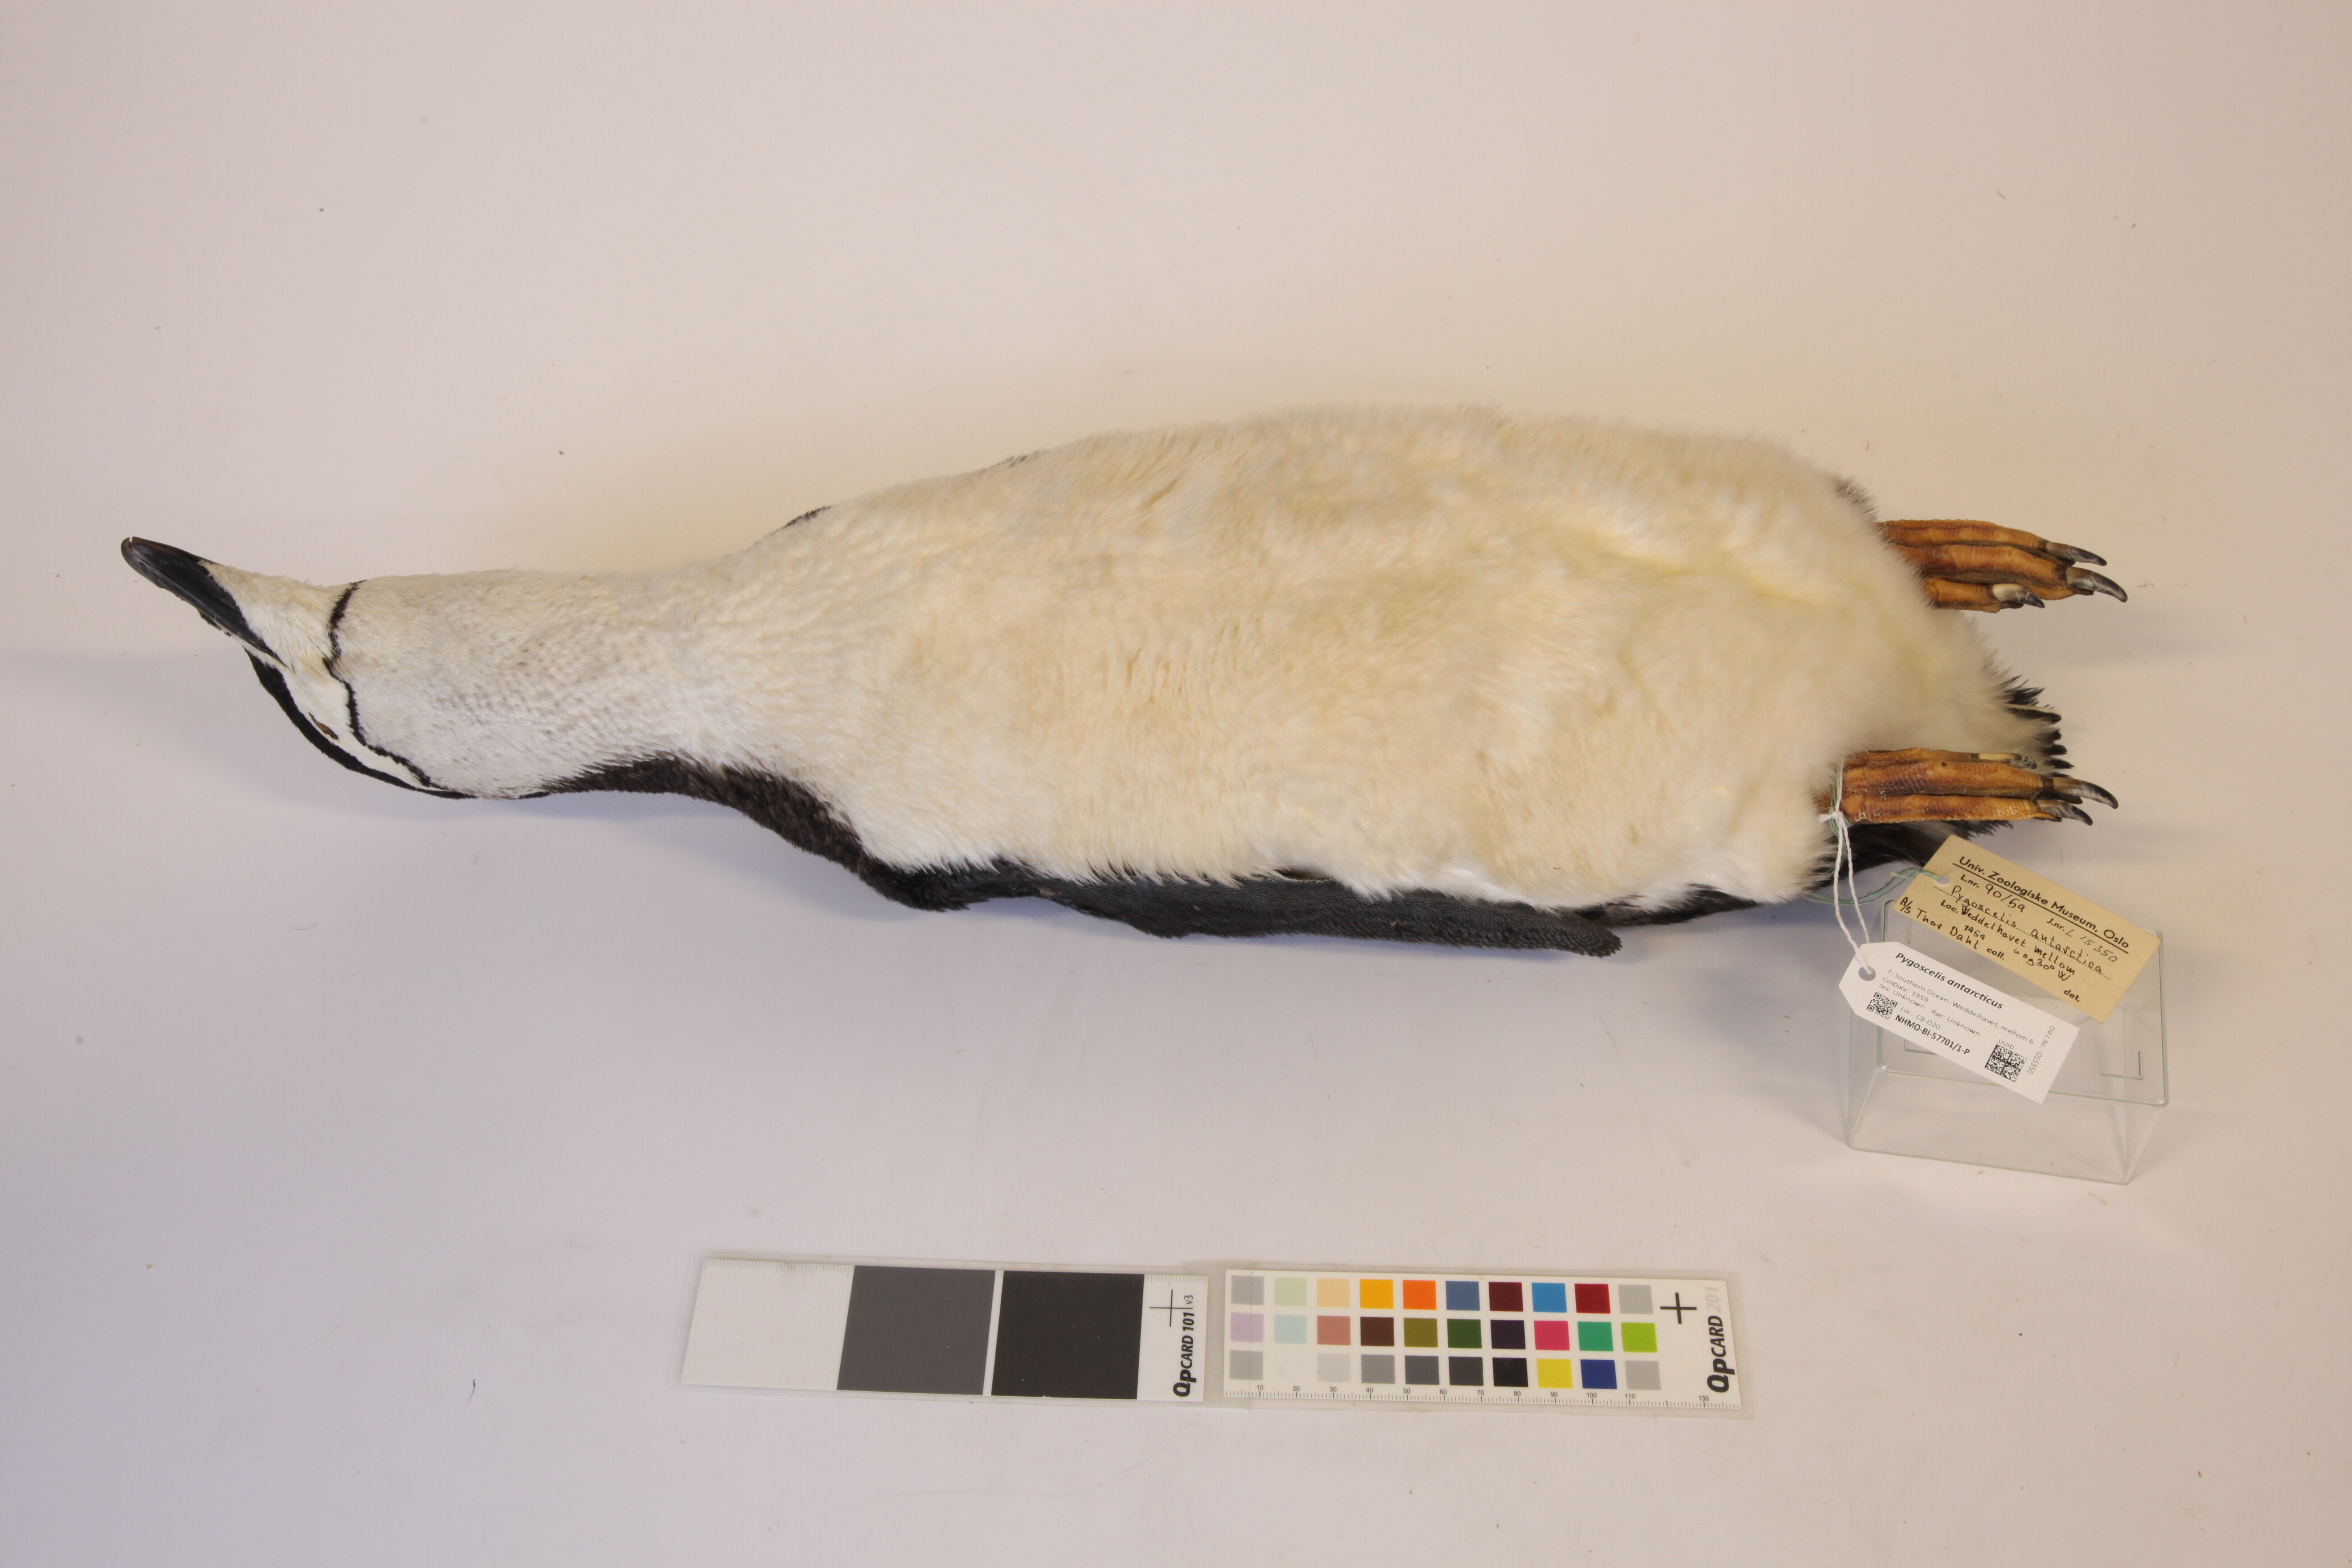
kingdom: Animalia
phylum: Chordata
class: Aves
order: Sphenisciformes
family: Spheniscidae
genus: Pygoscelis
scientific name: Pygoscelis antarcticus
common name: Chinstrap penguin
